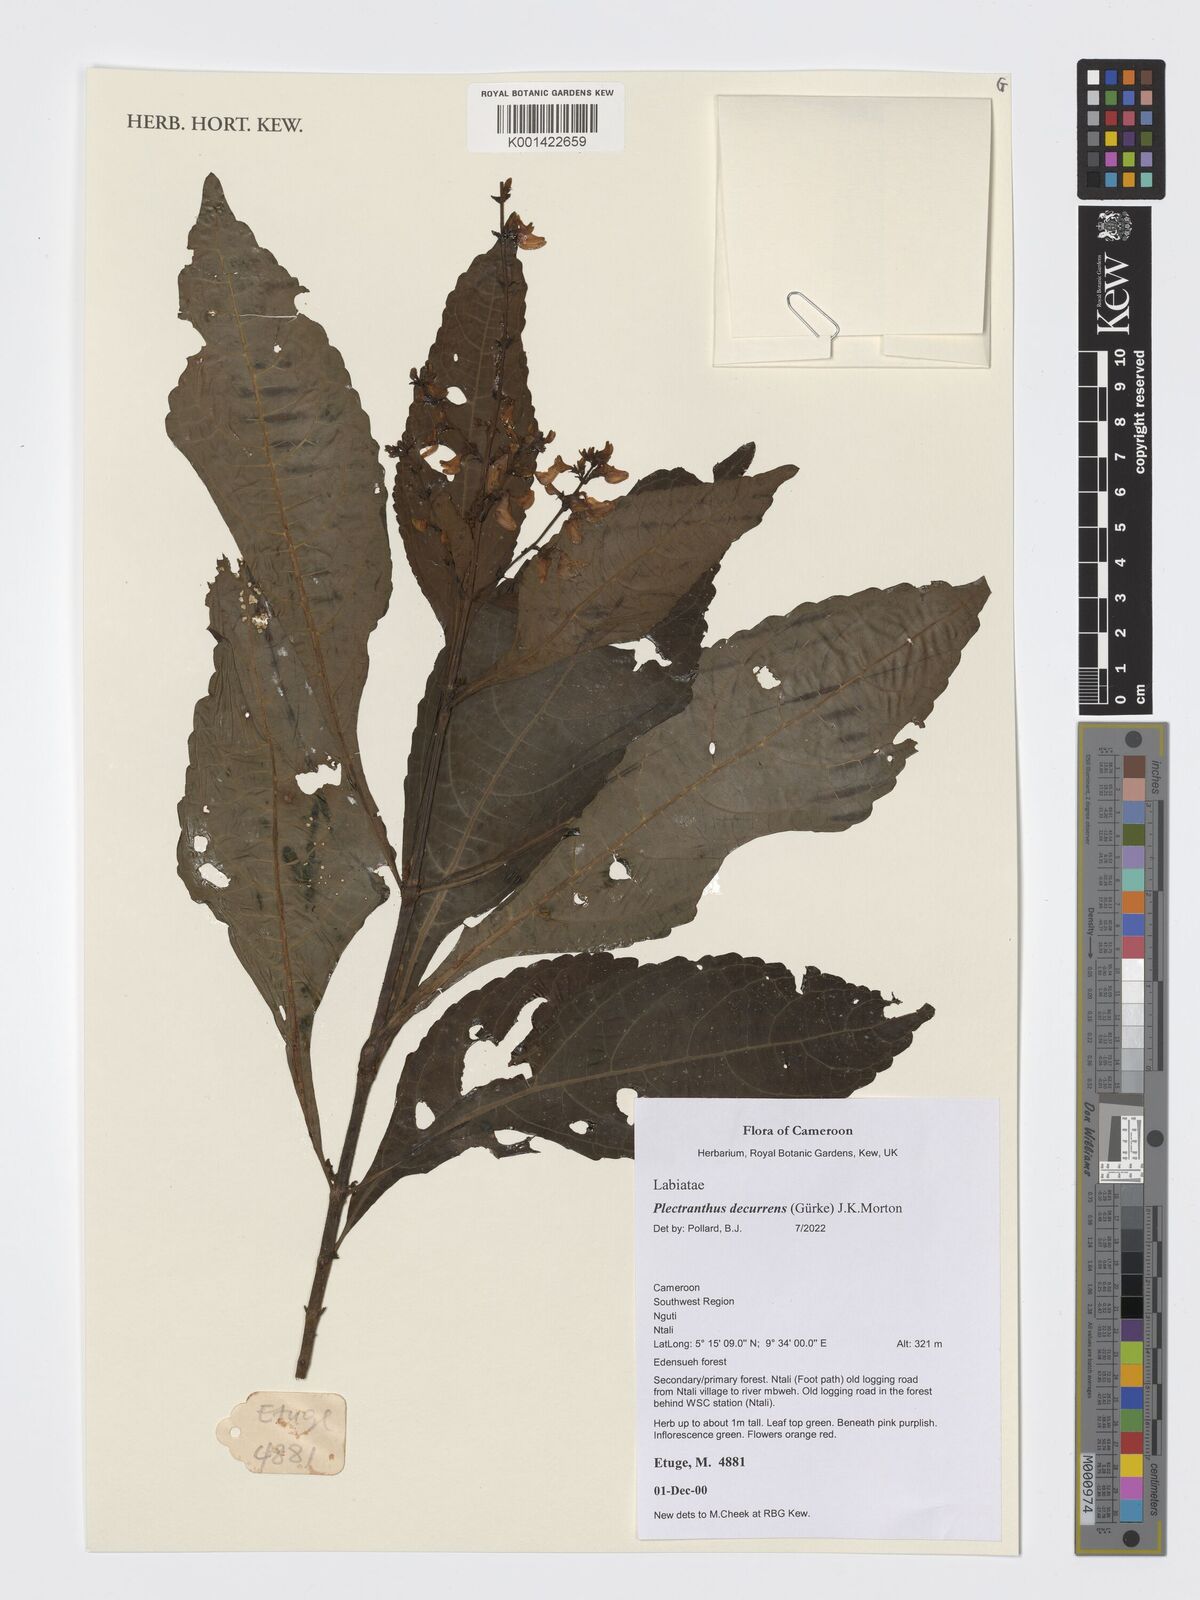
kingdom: Plantae
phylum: Tracheophyta
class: Magnoliopsida
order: Lamiales
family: Lamiaceae
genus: Coleus
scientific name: Coleus decurrens
